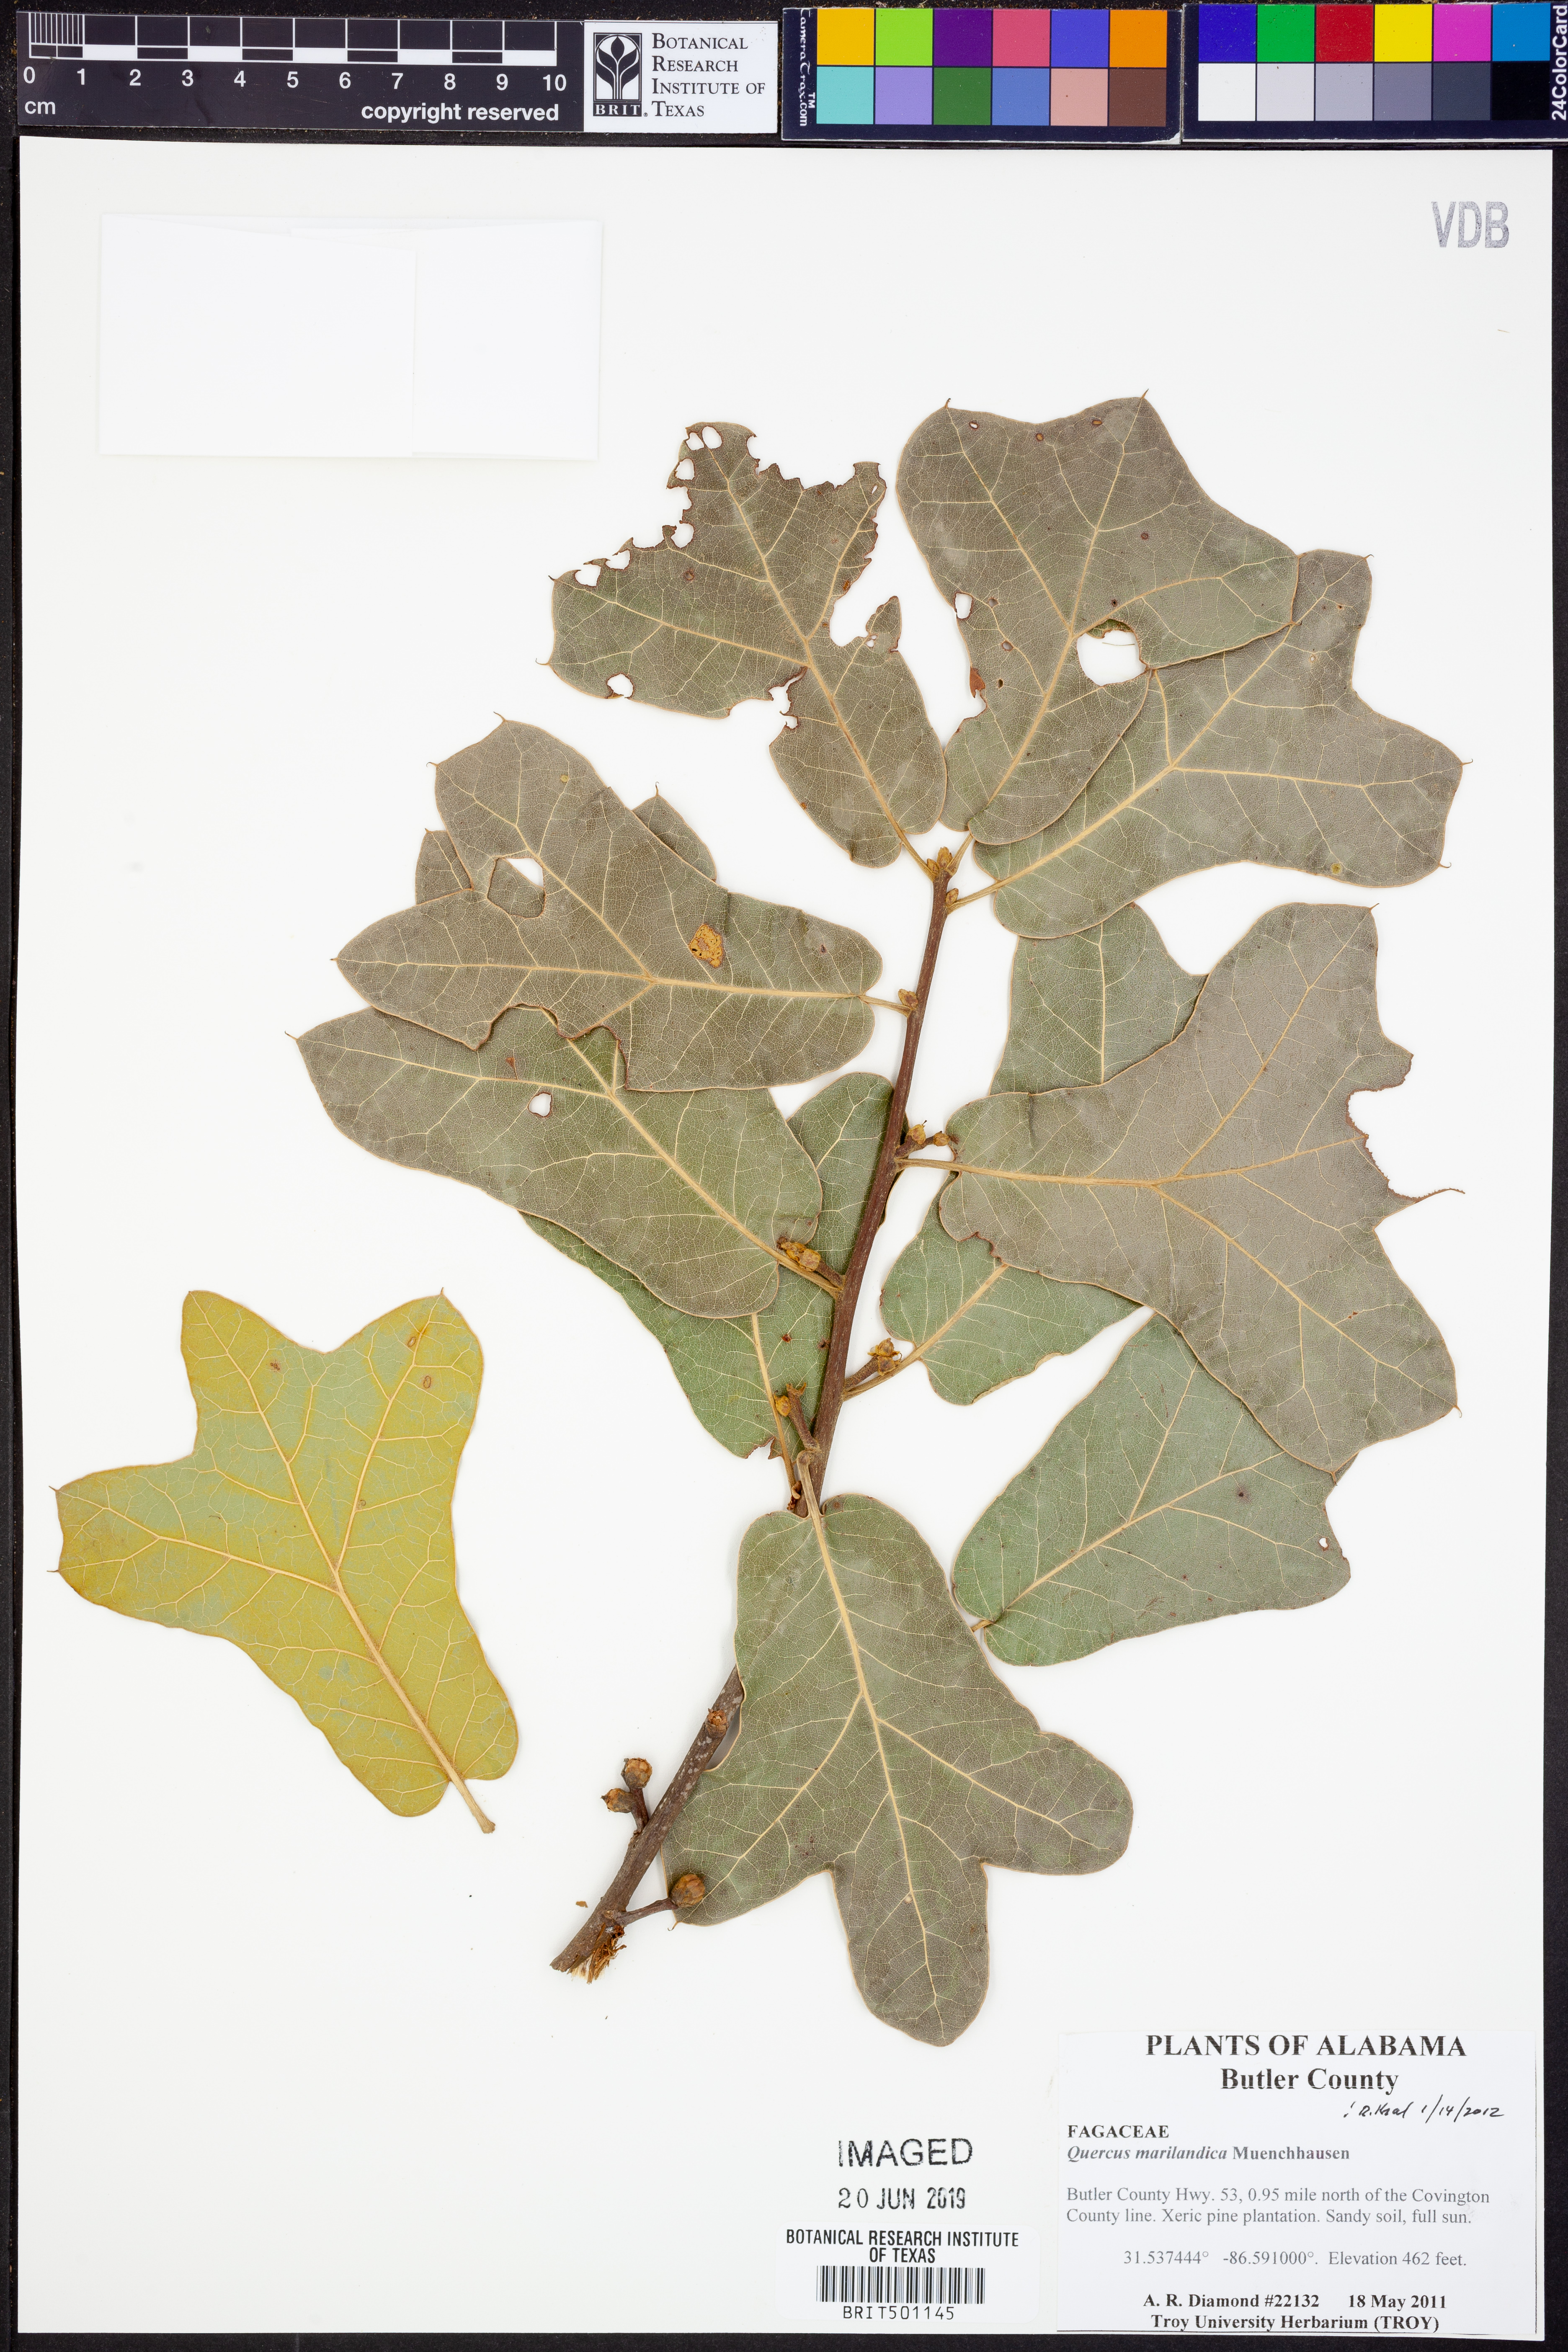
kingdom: Plantae
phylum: Tracheophyta
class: Magnoliopsida
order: Fagales
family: Fagaceae
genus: Quercus
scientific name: Quercus marilandica
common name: Blackjack oak
